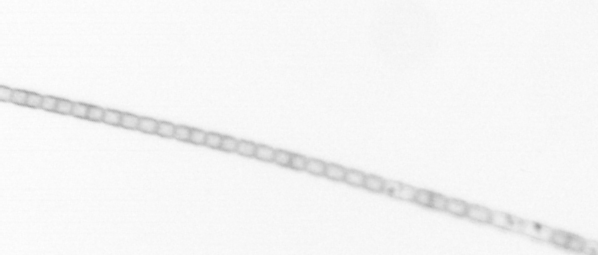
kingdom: Chromista
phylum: Ochrophyta
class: Bacillariophyceae
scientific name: Bacillariophyceae
